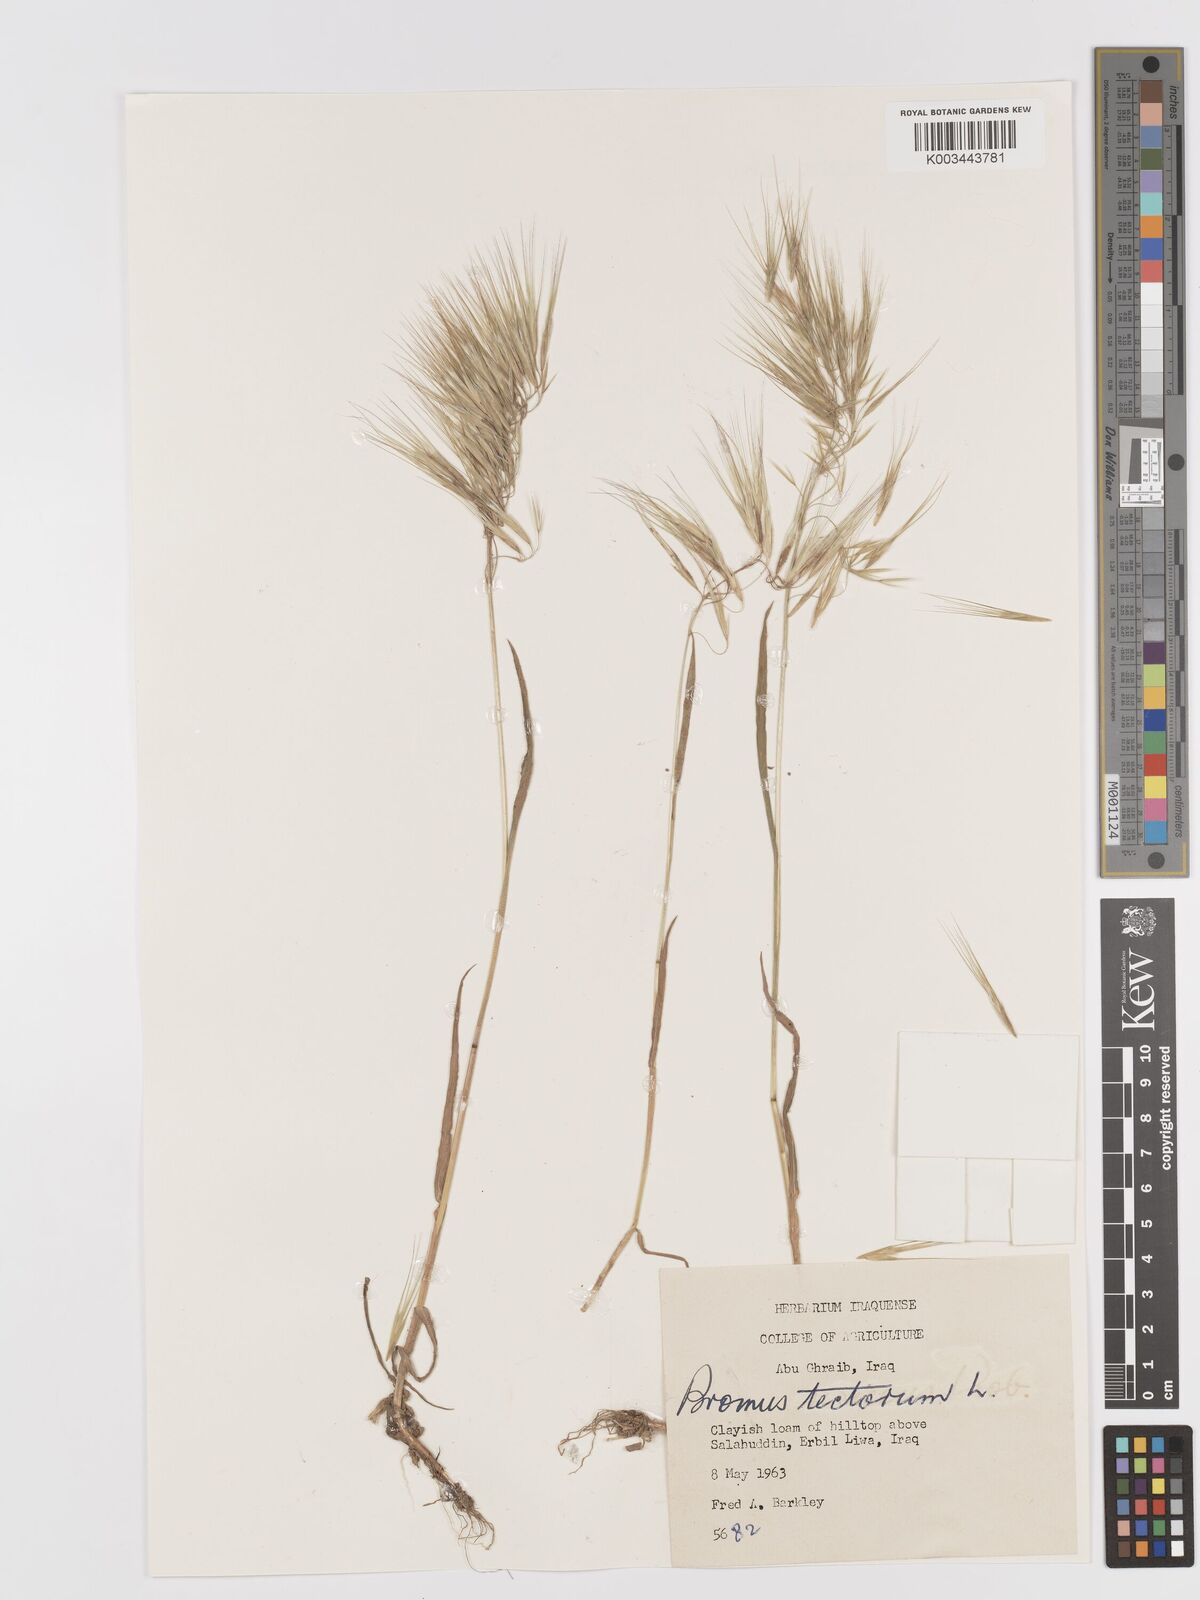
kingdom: Plantae
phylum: Tracheophyta
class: Liliopsida
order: Poales
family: Poaceae
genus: Bromus
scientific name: Bromus tectorum
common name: Cheatgrass
